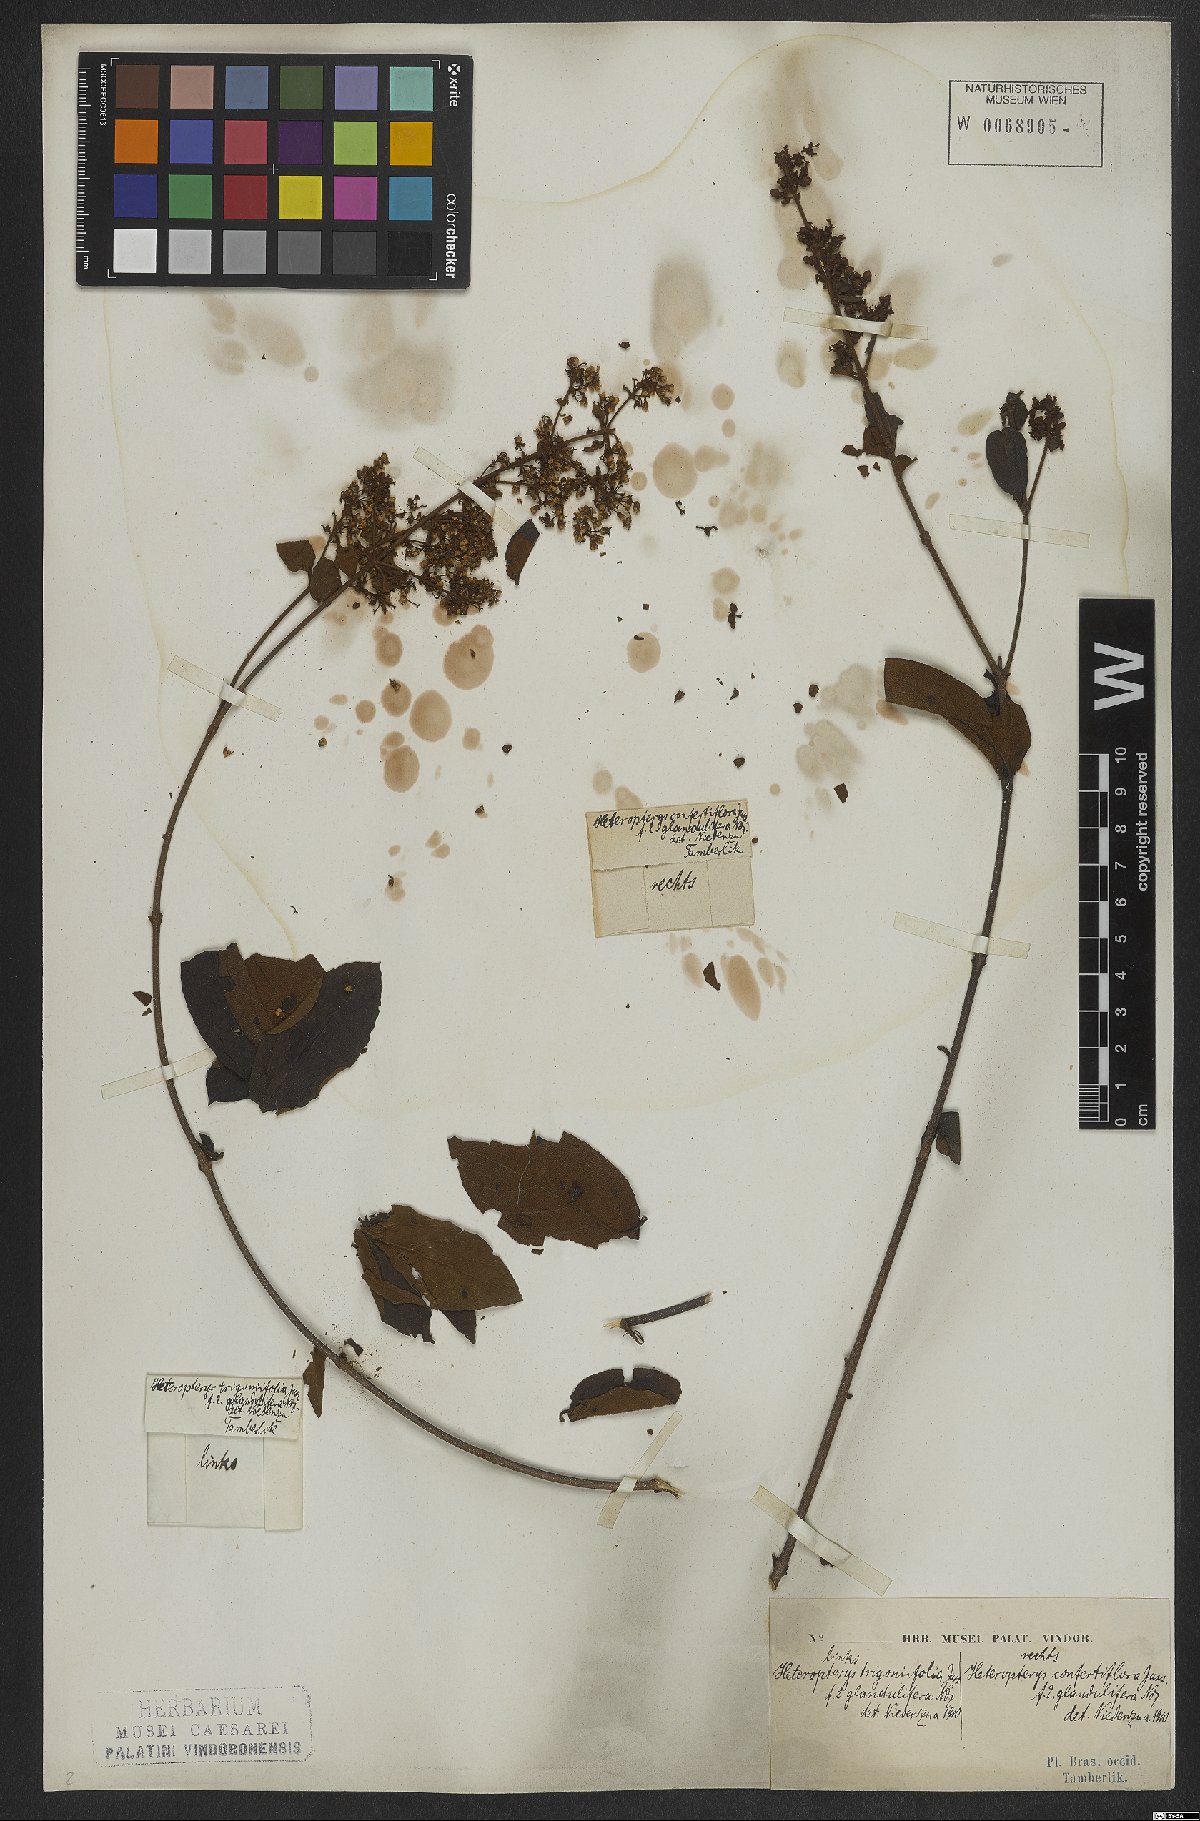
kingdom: Plantae
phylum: Tracheophyta
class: Magnoliopsida
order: Malpighiales
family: Malpighiaceae
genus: Heteropterys
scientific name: Heteropterys trigoniifolia
